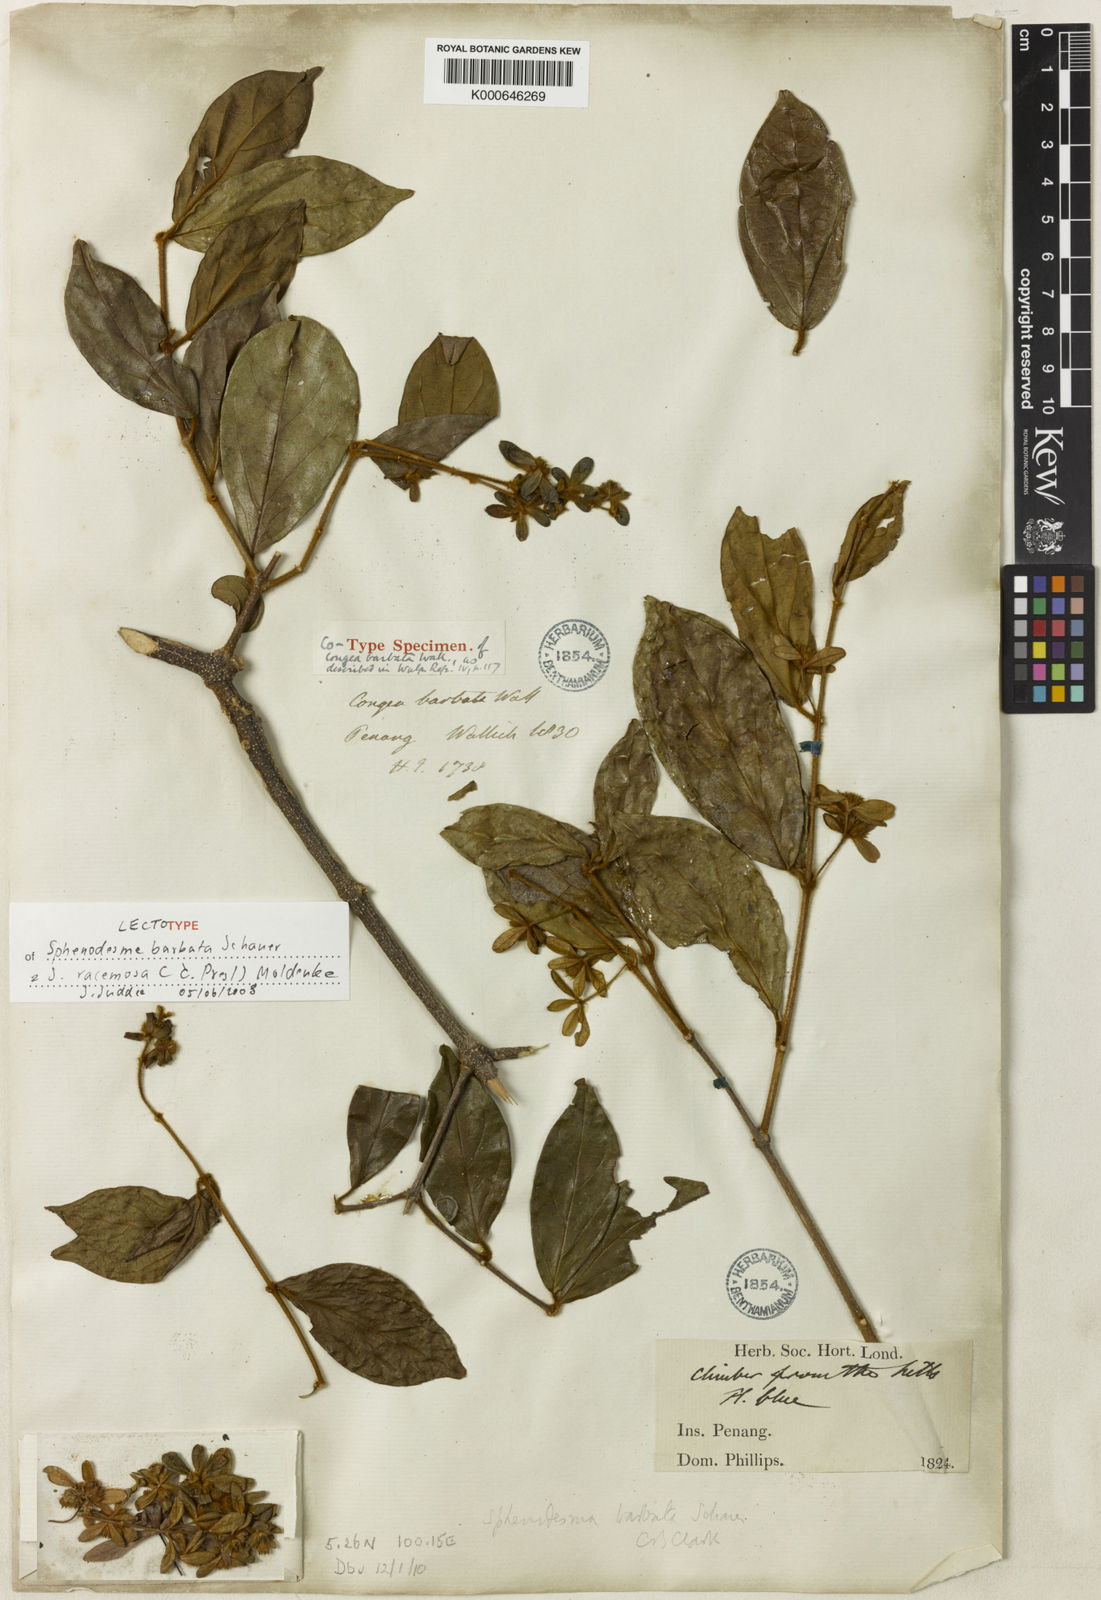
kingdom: Plantae
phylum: Tracheophyta
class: Magnoliopsida
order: Lamiales
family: Lamiaceae
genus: Sphenodesme
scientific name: Sphenodesme racemosa
